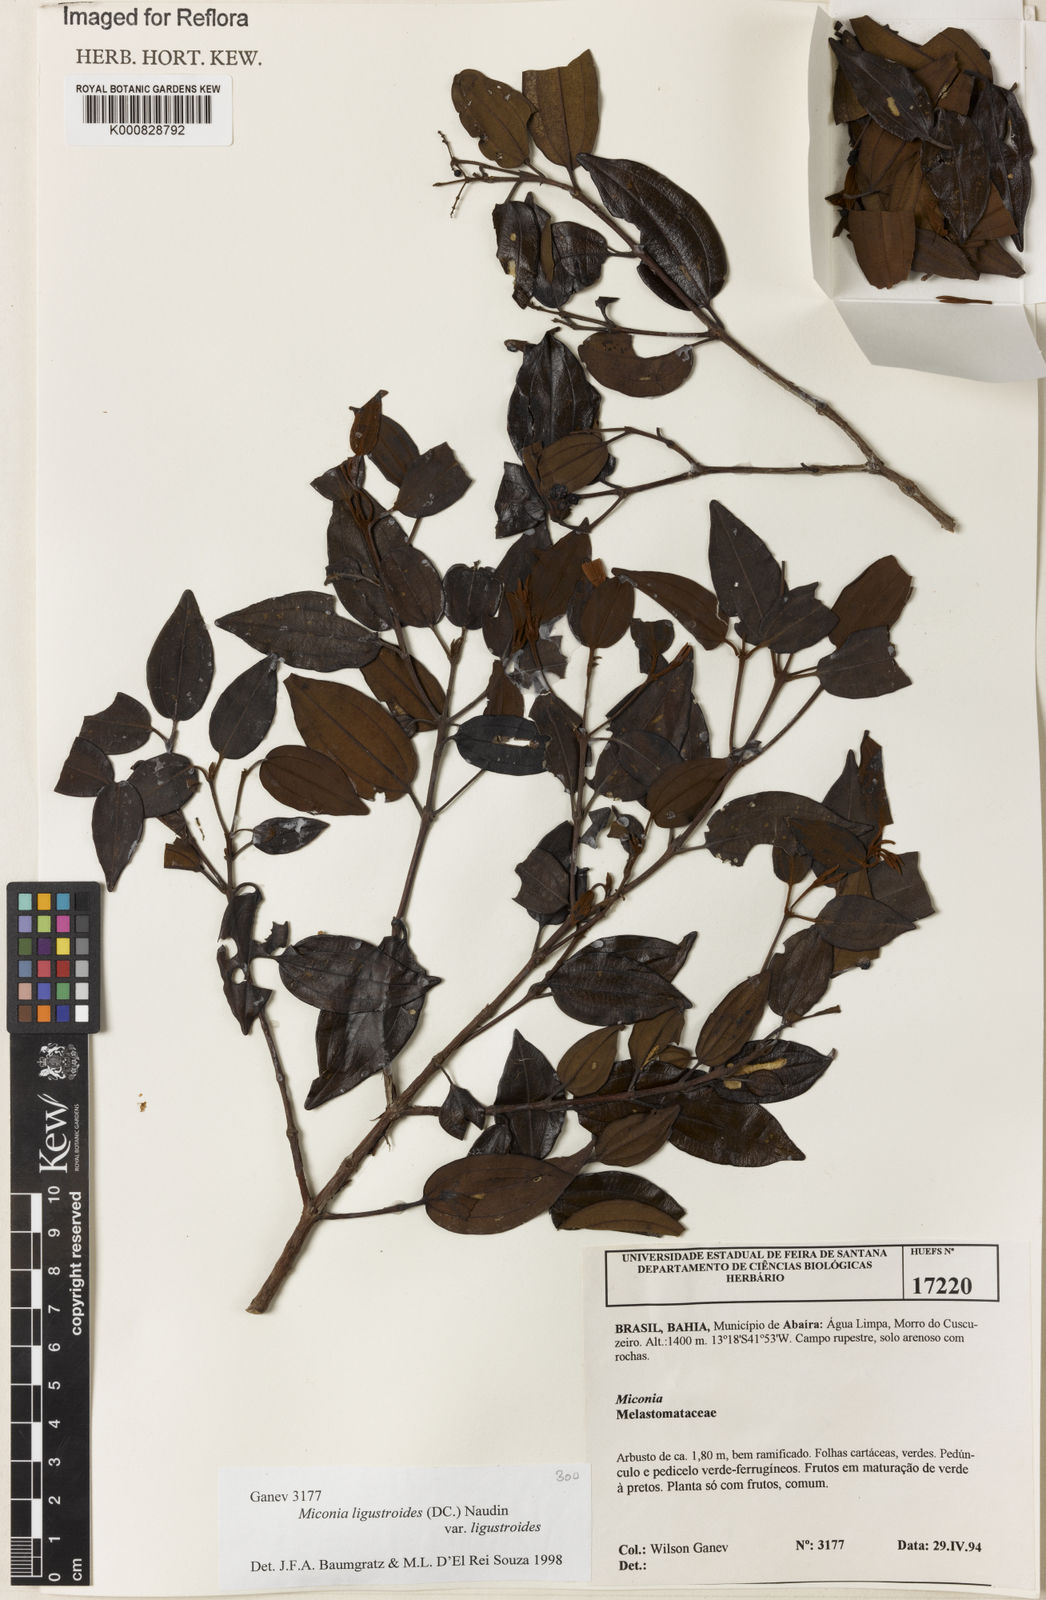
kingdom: Plantae
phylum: Tracheophyta
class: Magnoliopsida
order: Myrtales
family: Melastomataceae
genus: Miconia
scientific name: Miconia ligustroides
